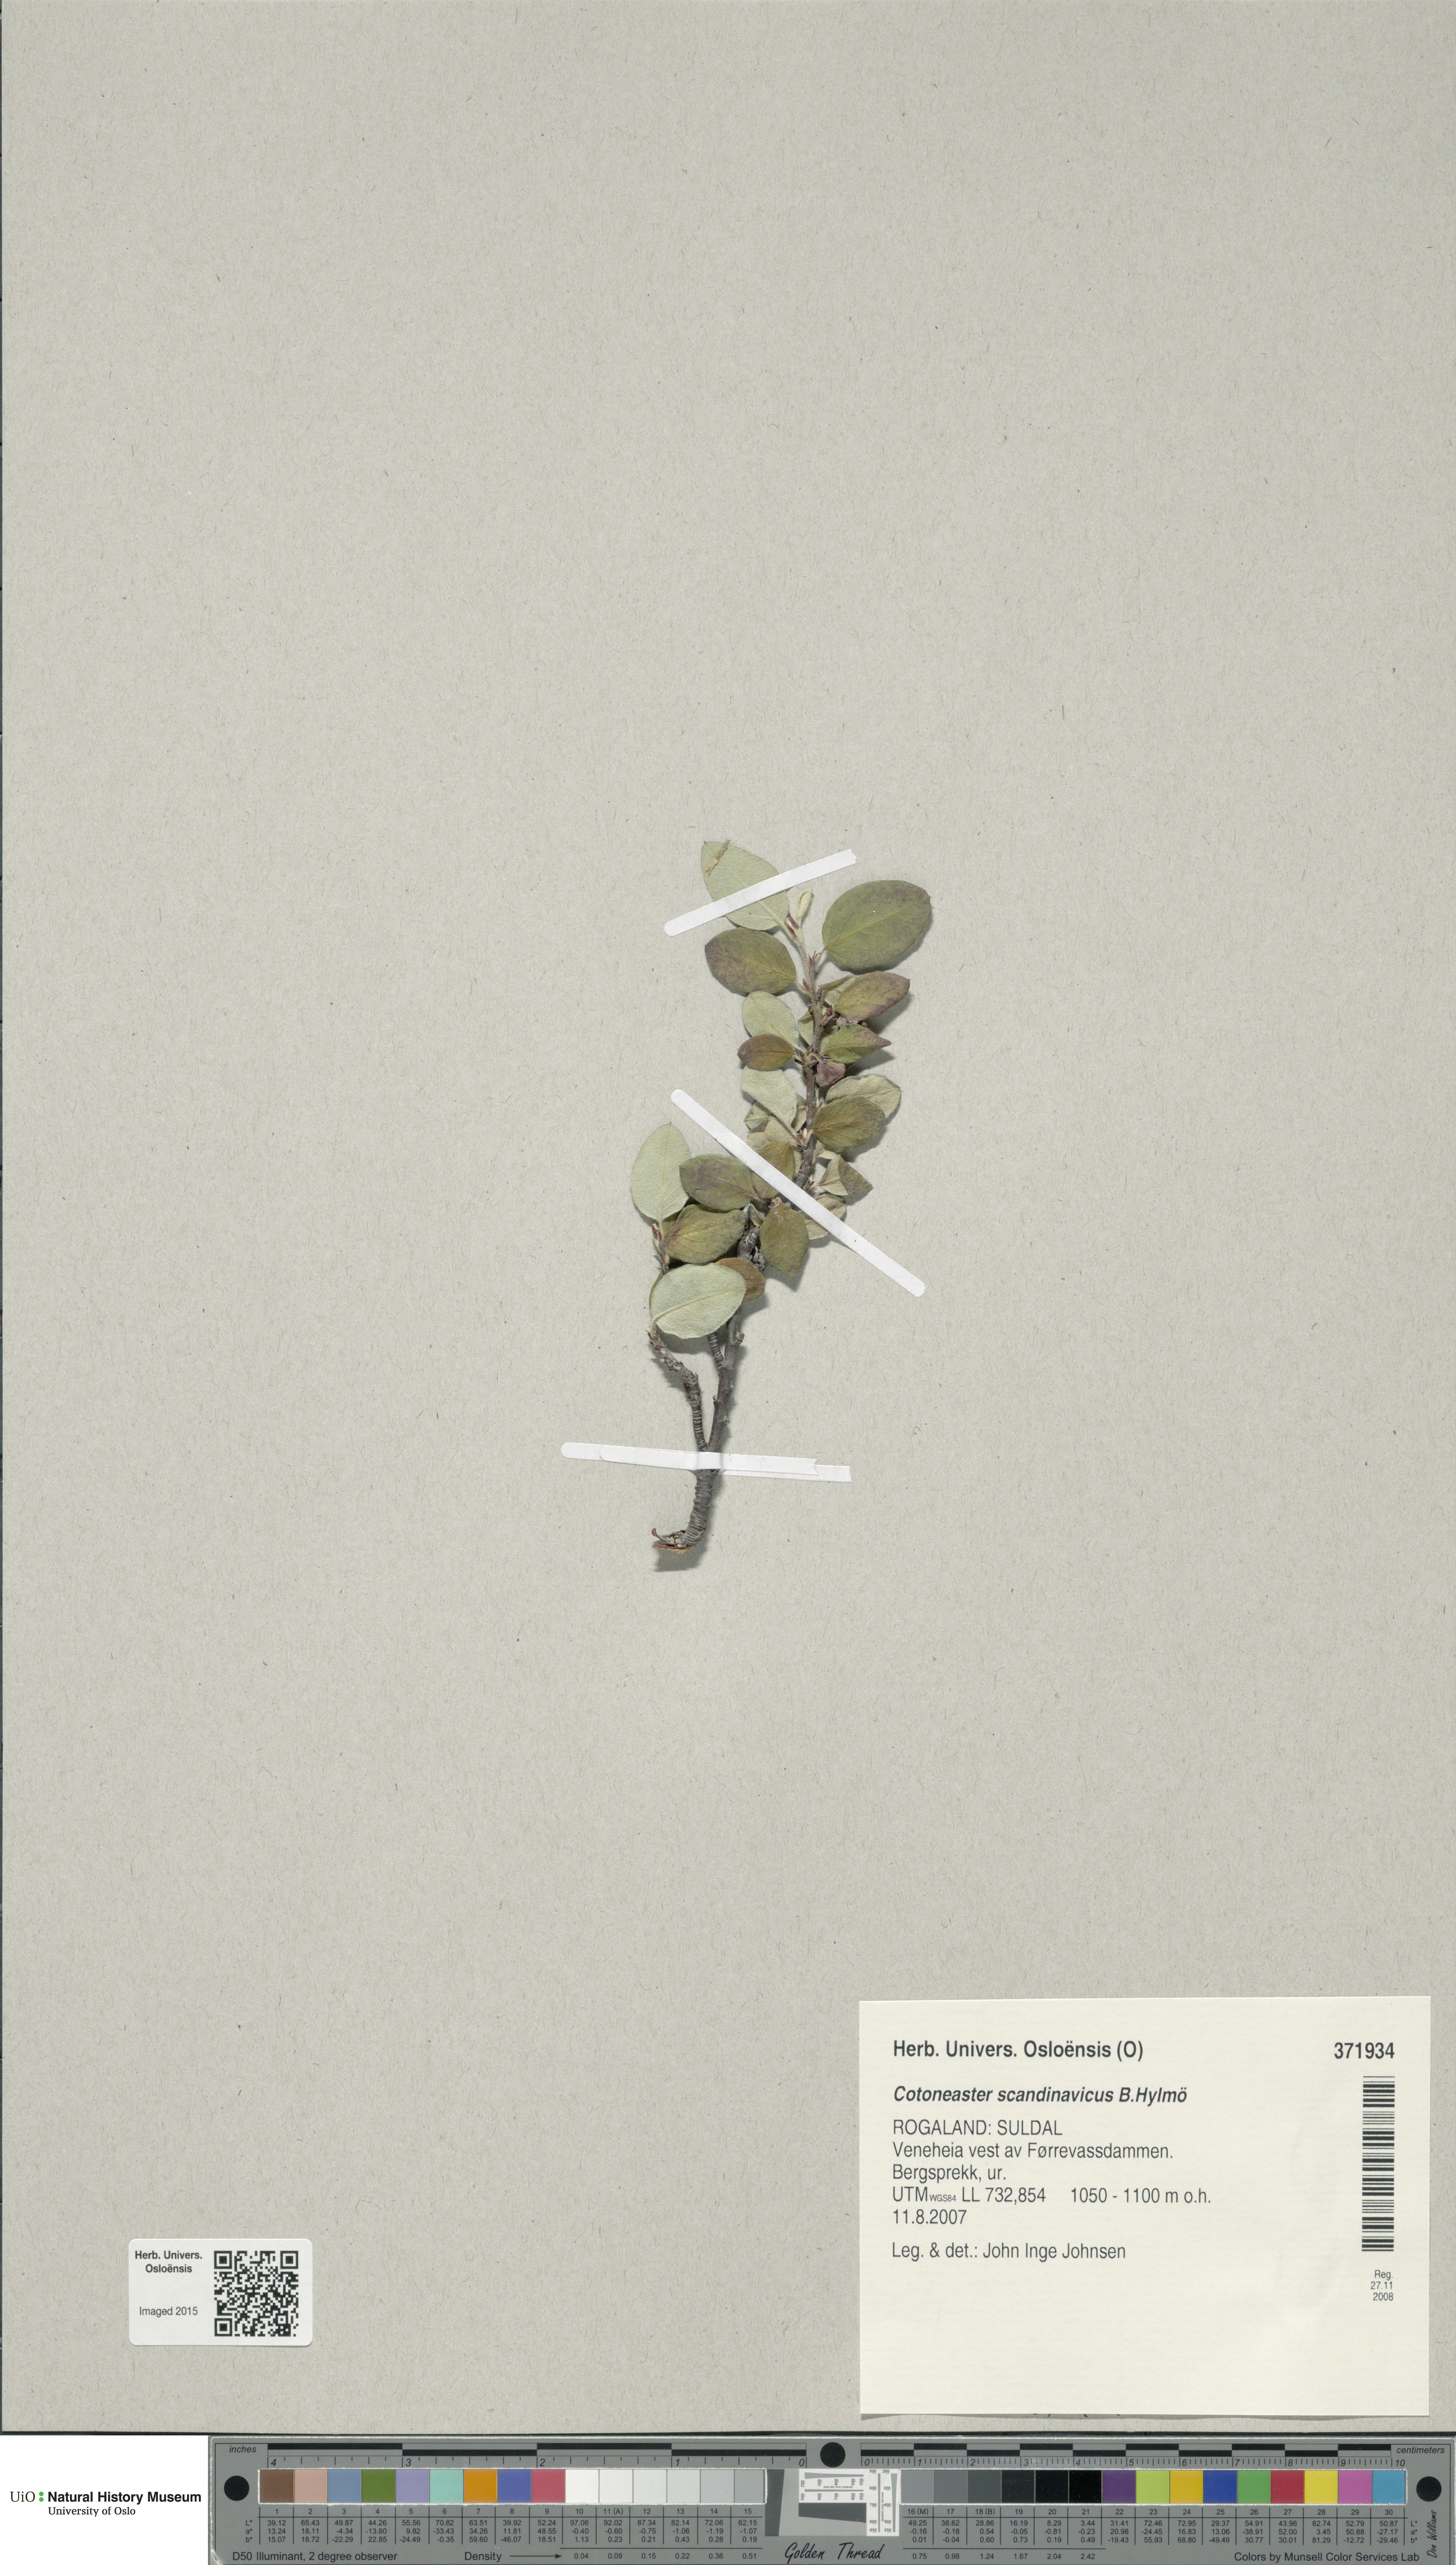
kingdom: Plantae
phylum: Tracheophyta
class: Magnoliopsida
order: Rosales
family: Rosaceae
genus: Cotoneaster
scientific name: Cotoneaster integerrimus
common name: Wild cotoneaster
